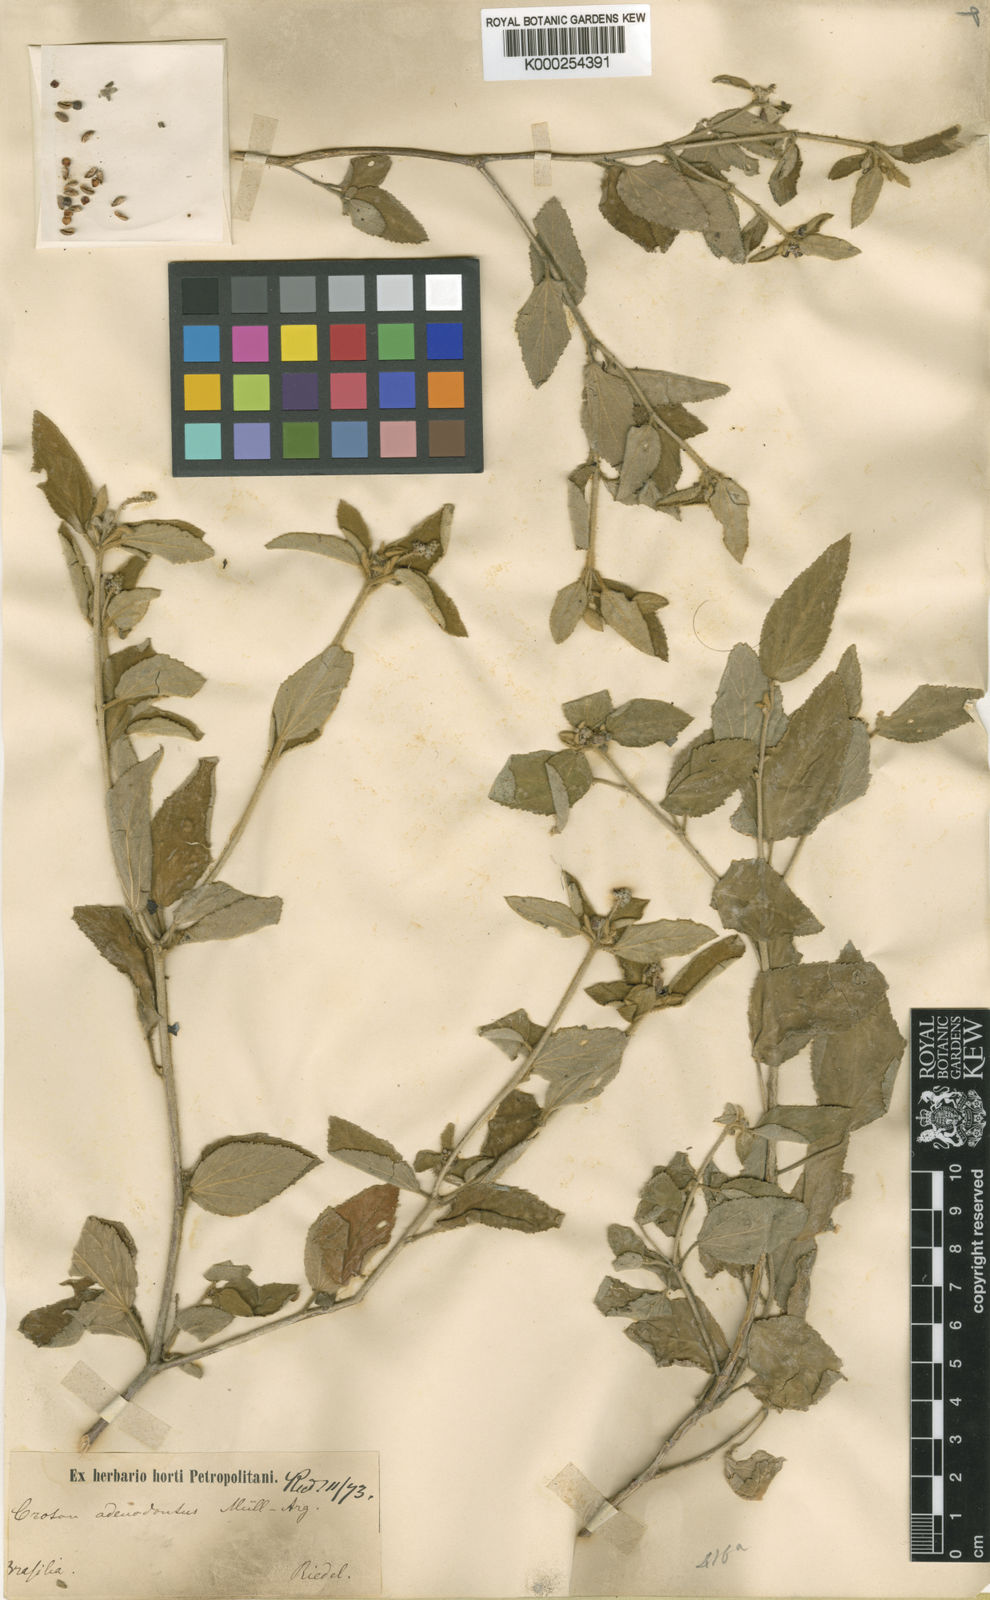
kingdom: Plantae
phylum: Tracheophyta
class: Magnoliopsida
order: Malpighiales
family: Euphorbiaceae
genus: Croton
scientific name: Croton
